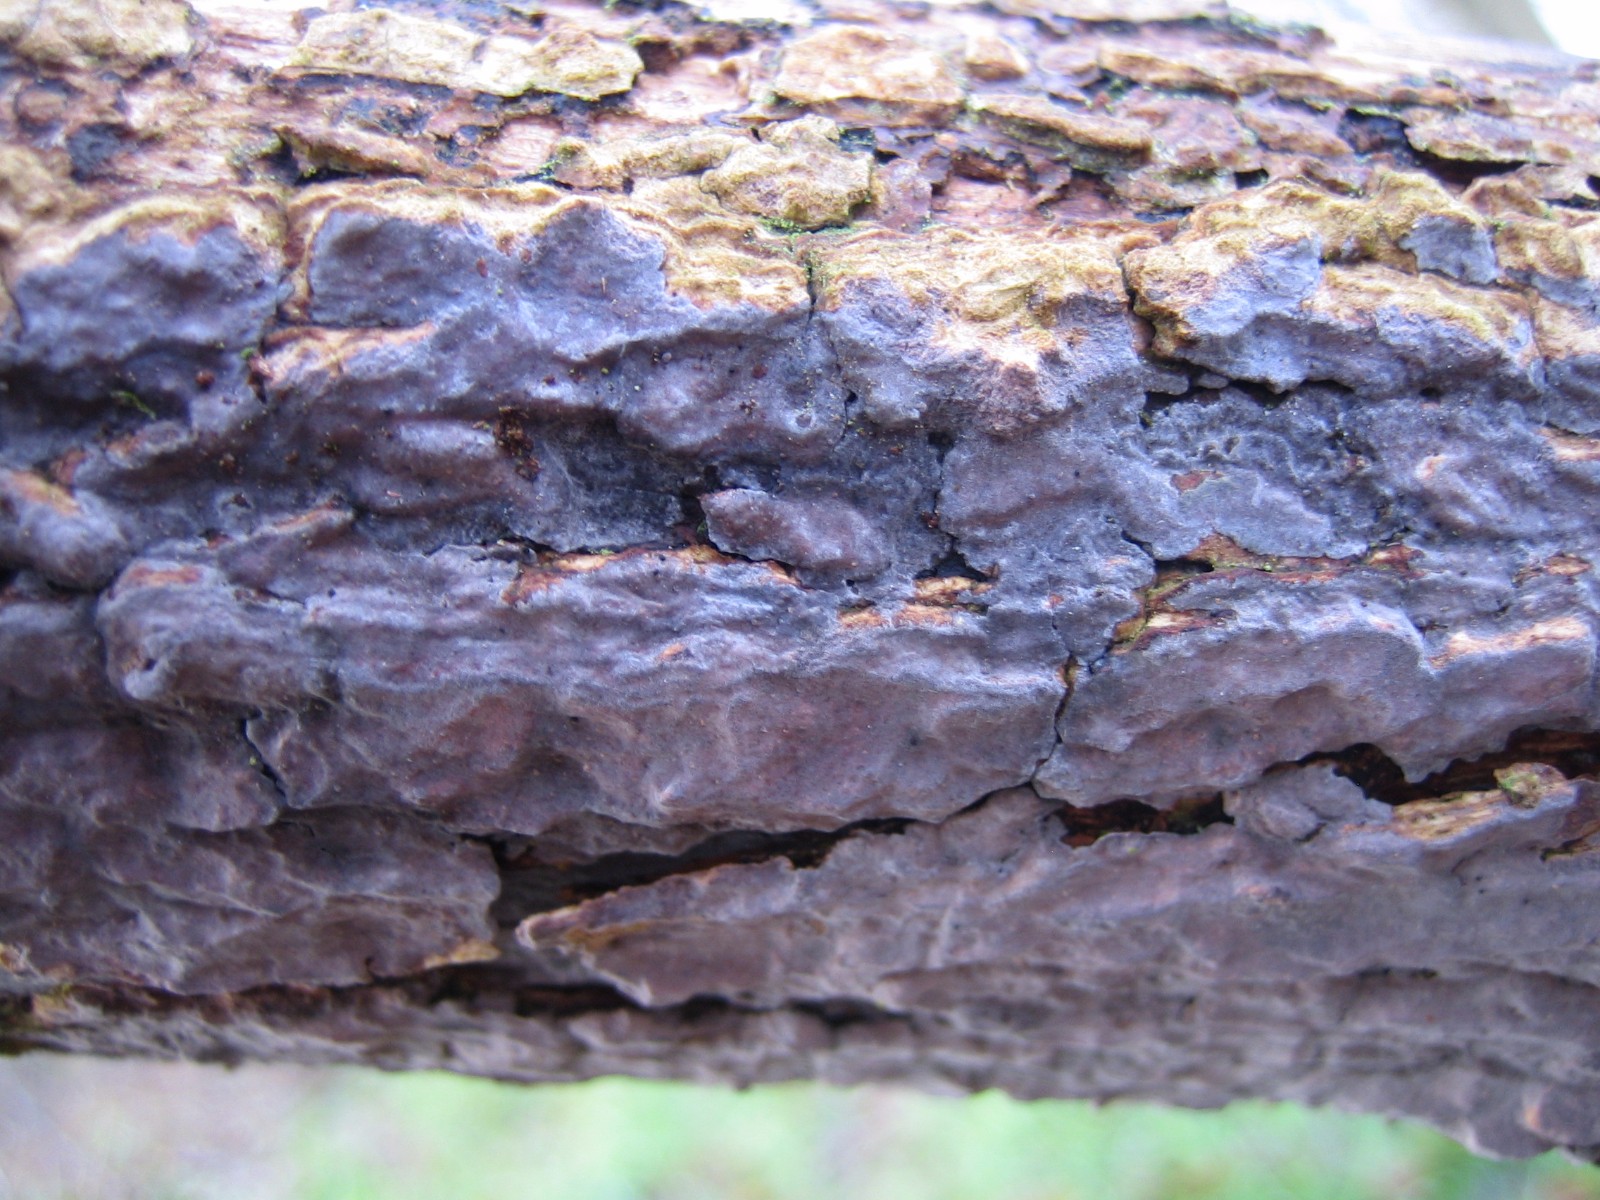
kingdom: Fungi
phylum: Basidiomycota
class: Agaricomycetes
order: Russulales
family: Peniophoraceae
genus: Peniophora
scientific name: Peniophora
